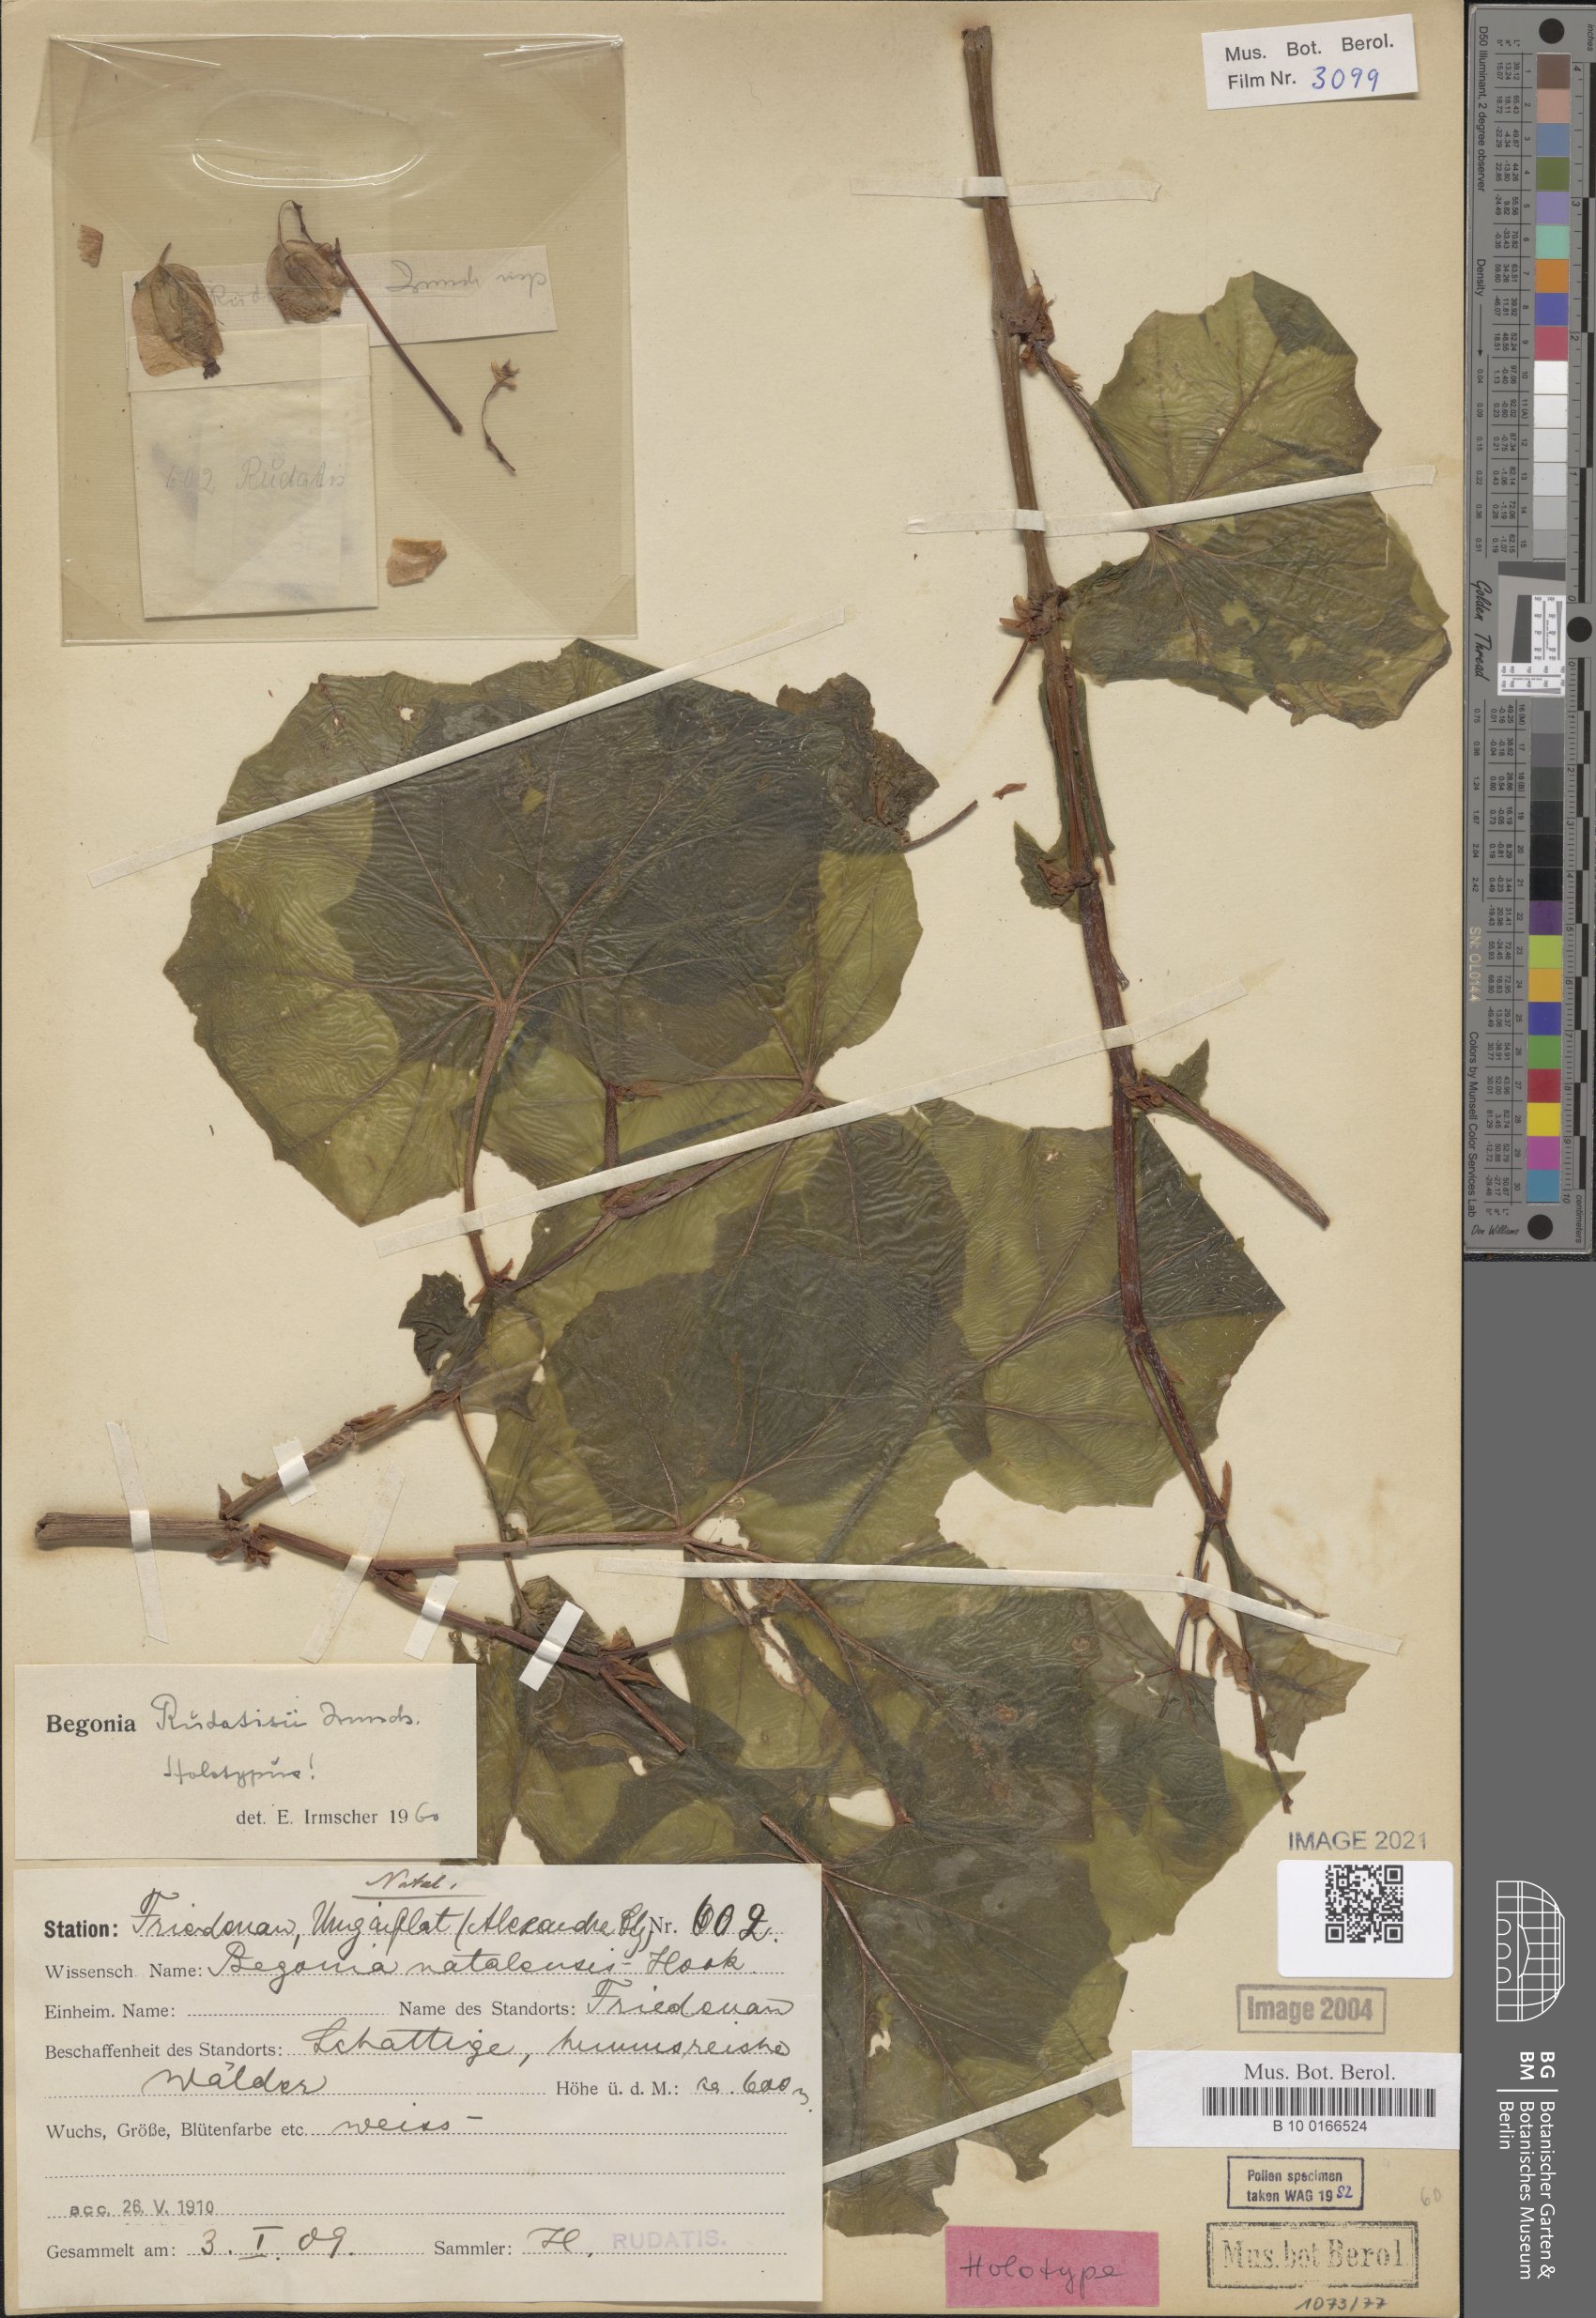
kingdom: Plantae
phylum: Tracheophyta
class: Magnoliopsida
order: Cucurbitales
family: Begoniaceae
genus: Begonia
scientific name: Begonia homonyma
